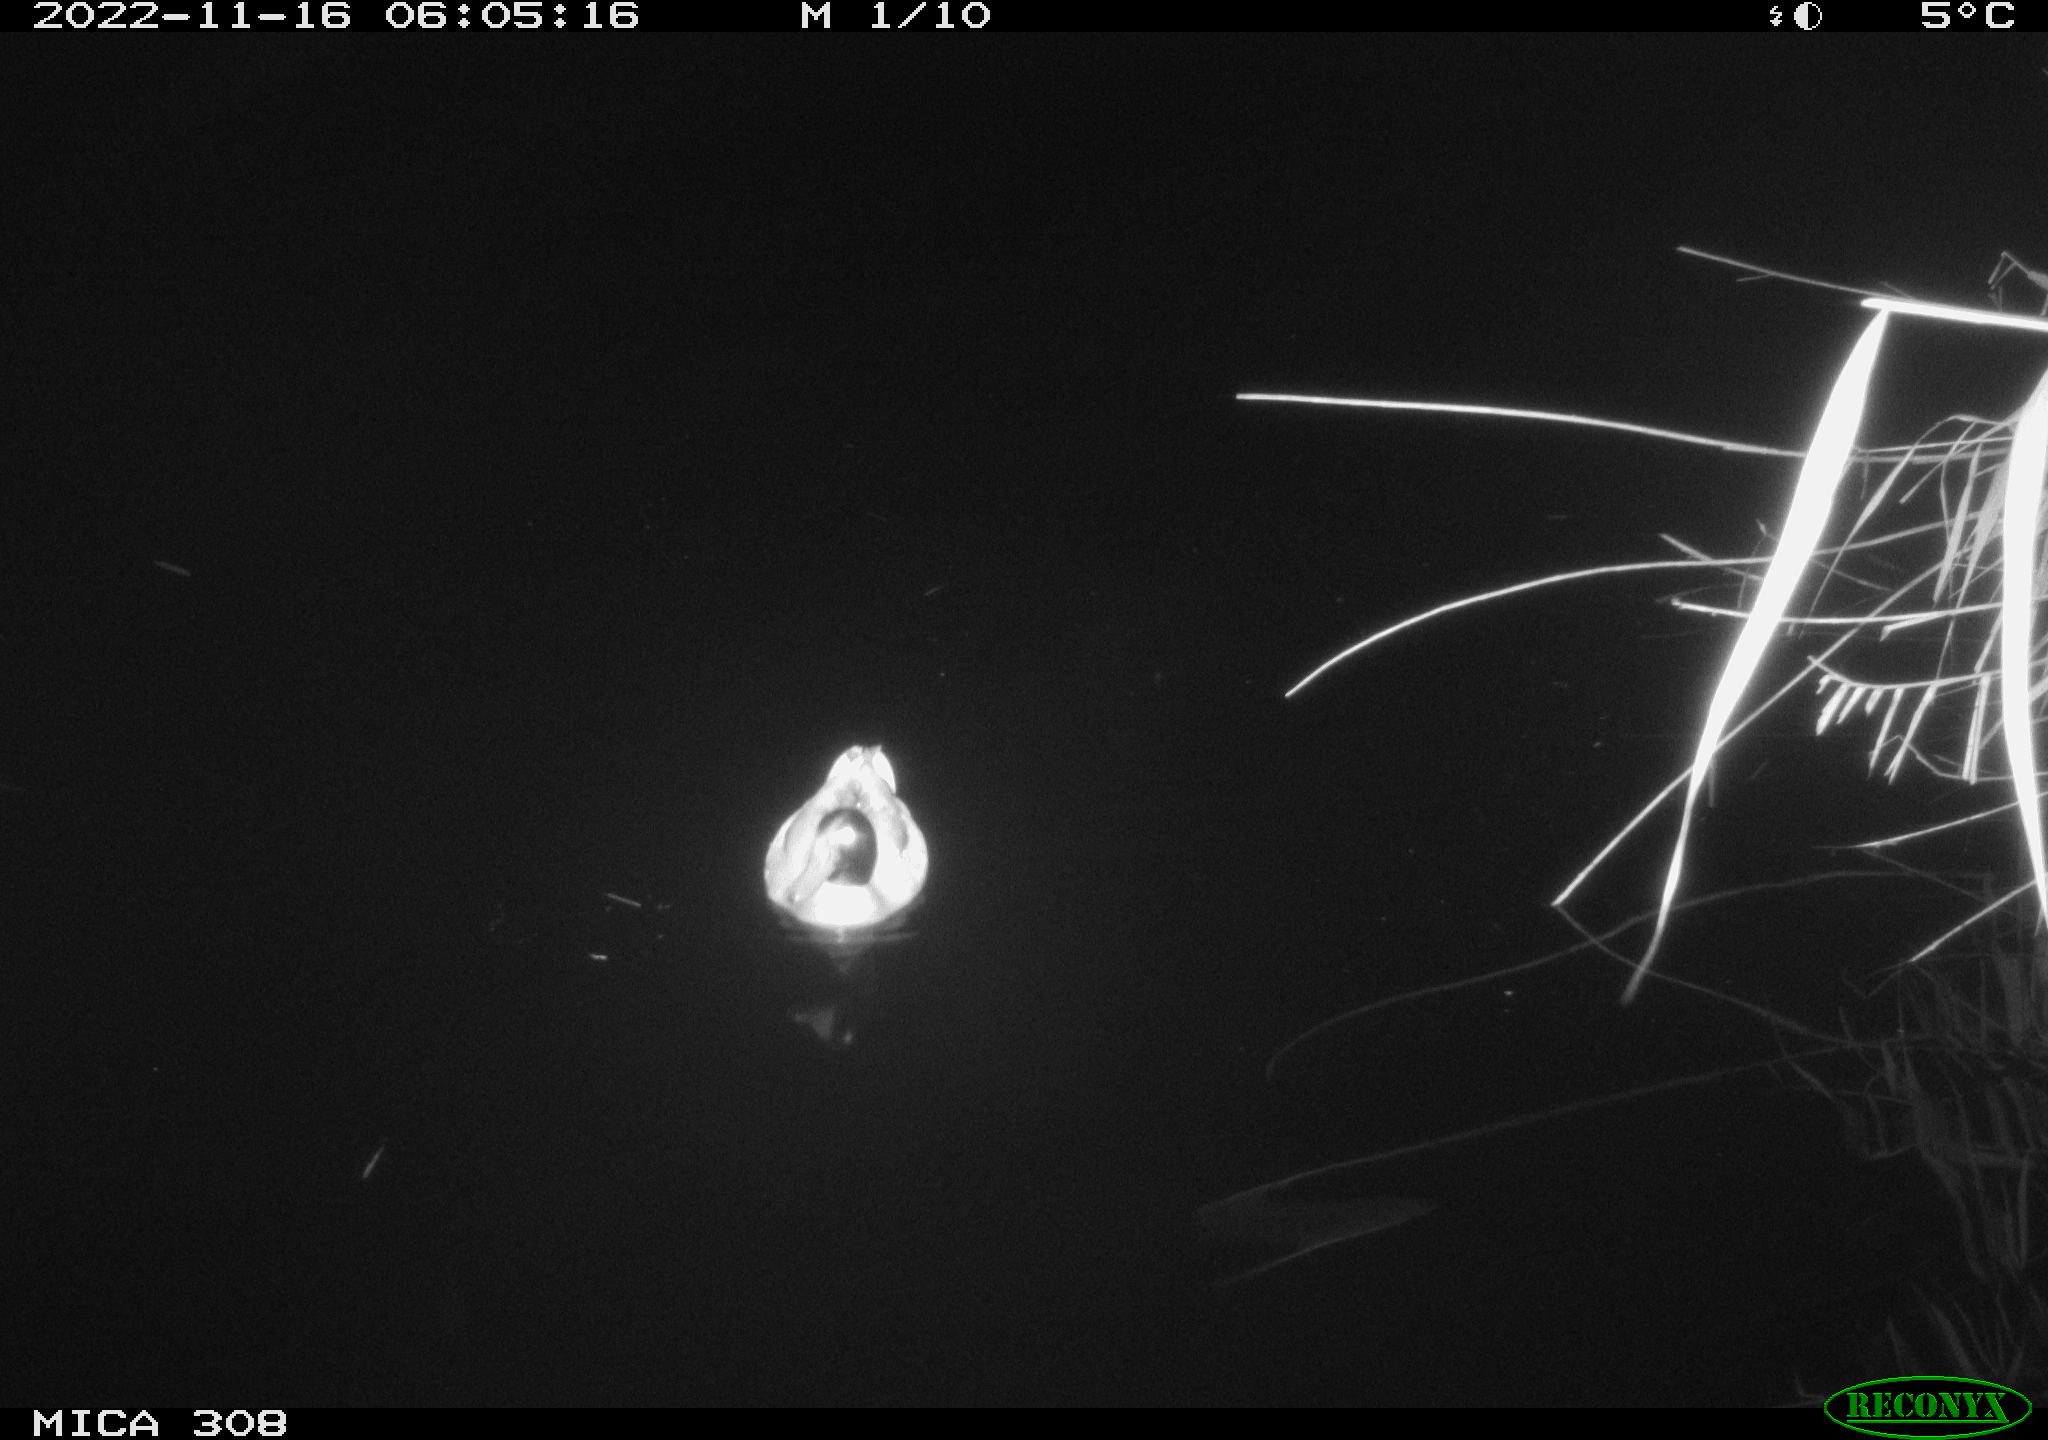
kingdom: Animalia
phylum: Chordata
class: Aves
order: Anseriformes
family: Anatidae
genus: Anas
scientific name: Anas
